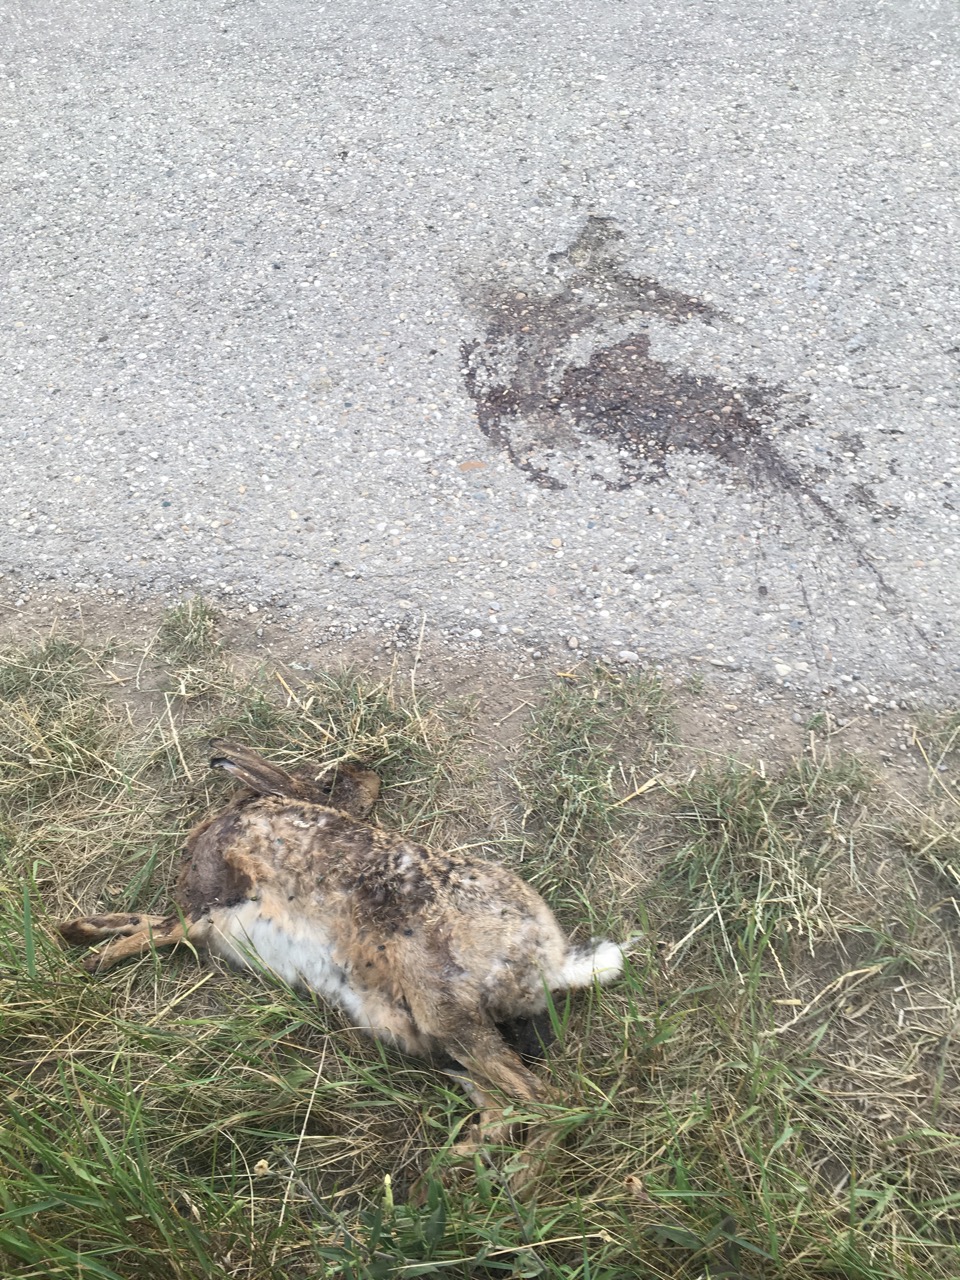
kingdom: Animalia
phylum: Chordata
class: Mammalia
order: Lagomorpha
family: Leporidae
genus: Lepus
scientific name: Lepus europaeus
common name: European hare
